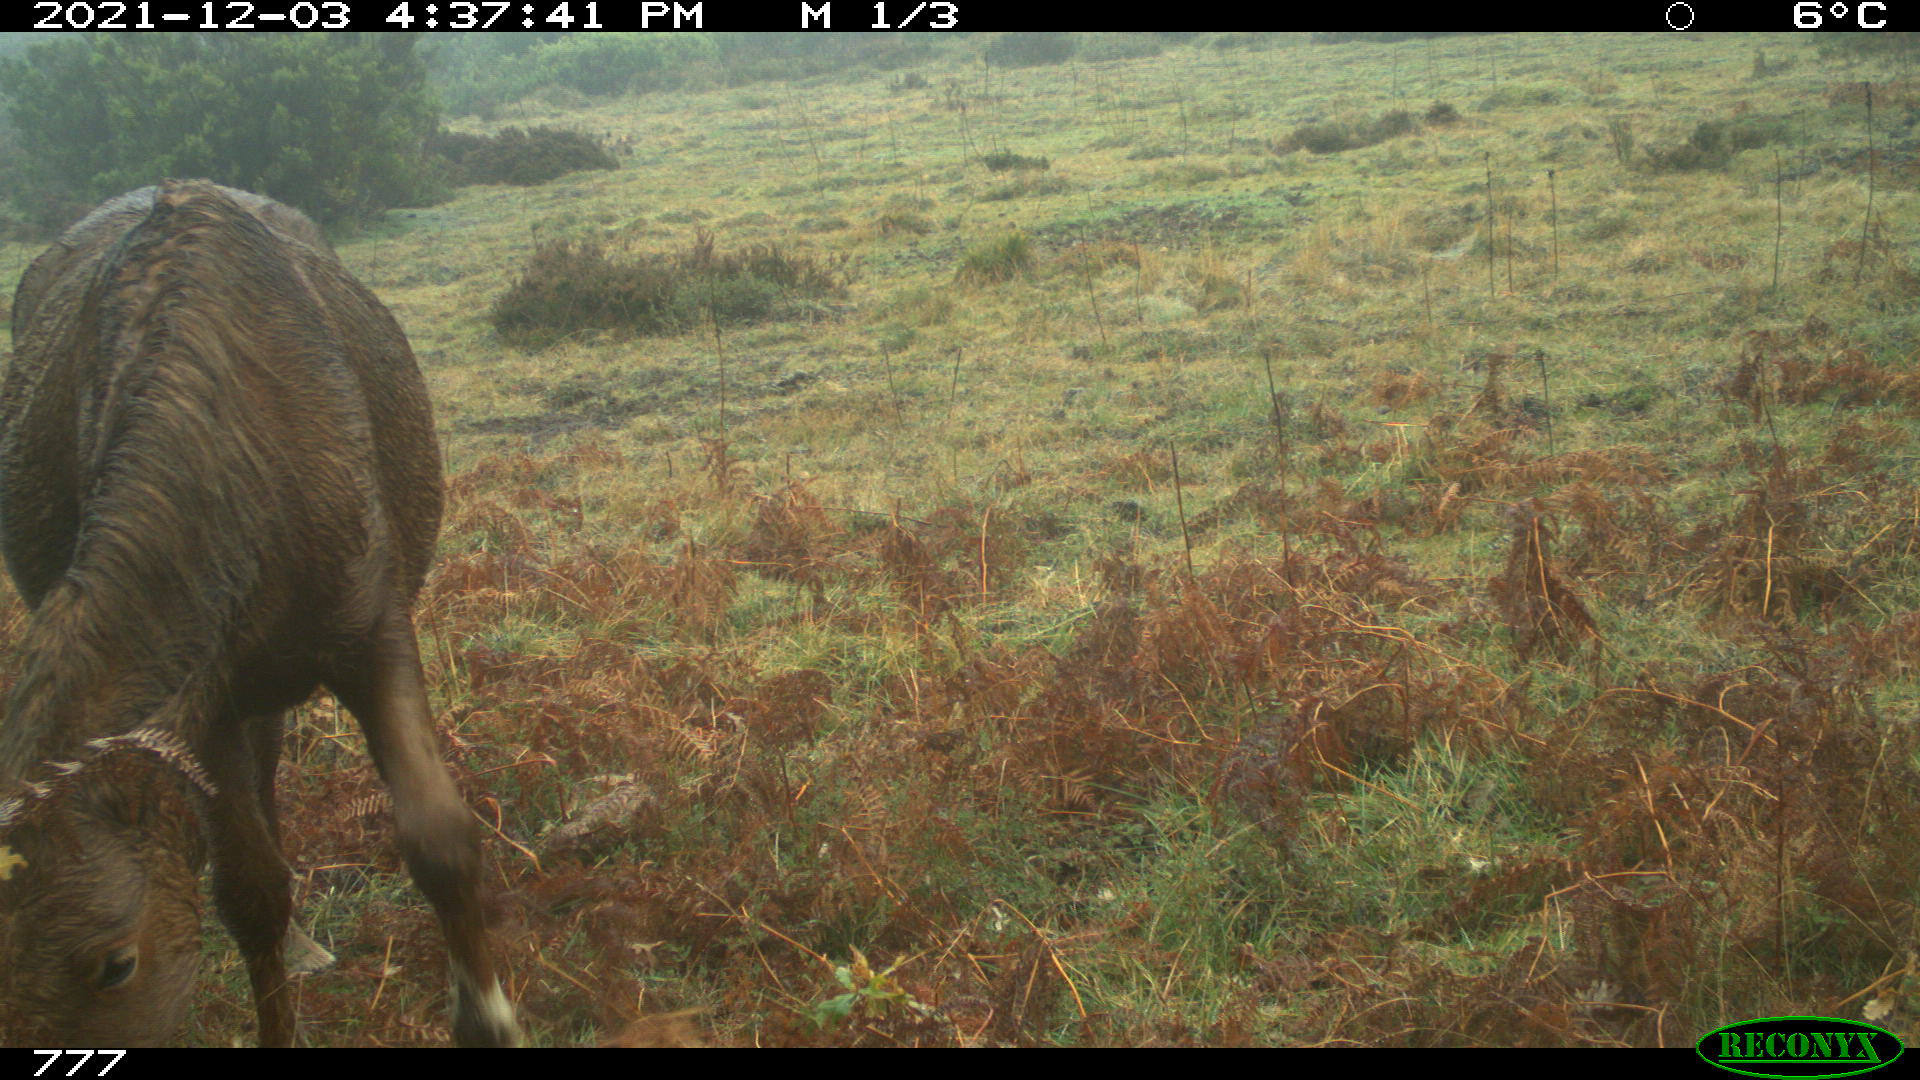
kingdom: Animalia
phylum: Chordata
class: Mammalia
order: Perissodactyla
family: Equidae
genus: Equus
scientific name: Equus caballus
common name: Horse
